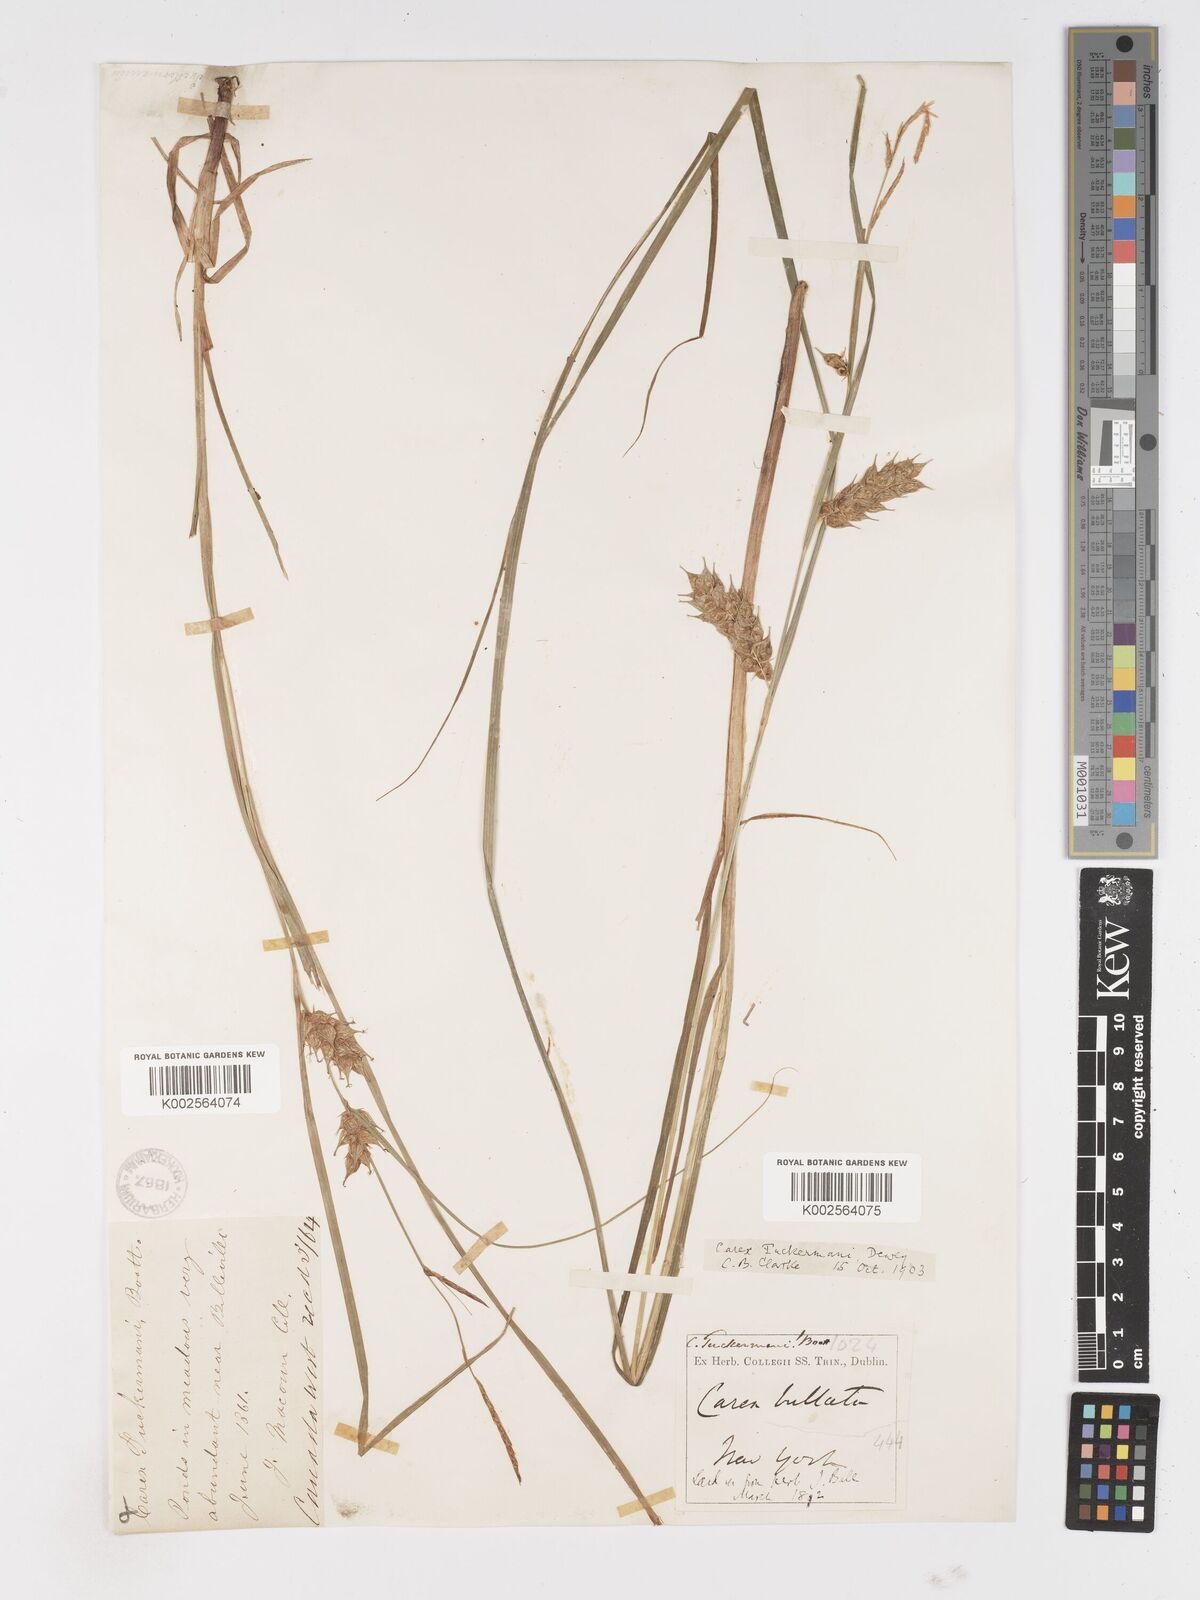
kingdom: Plantae
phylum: Tracheophyta
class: Liliopsida
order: Poales
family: Cyperaceae
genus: Carex
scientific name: Carex tuckermanii
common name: Tuckerman's sedge
